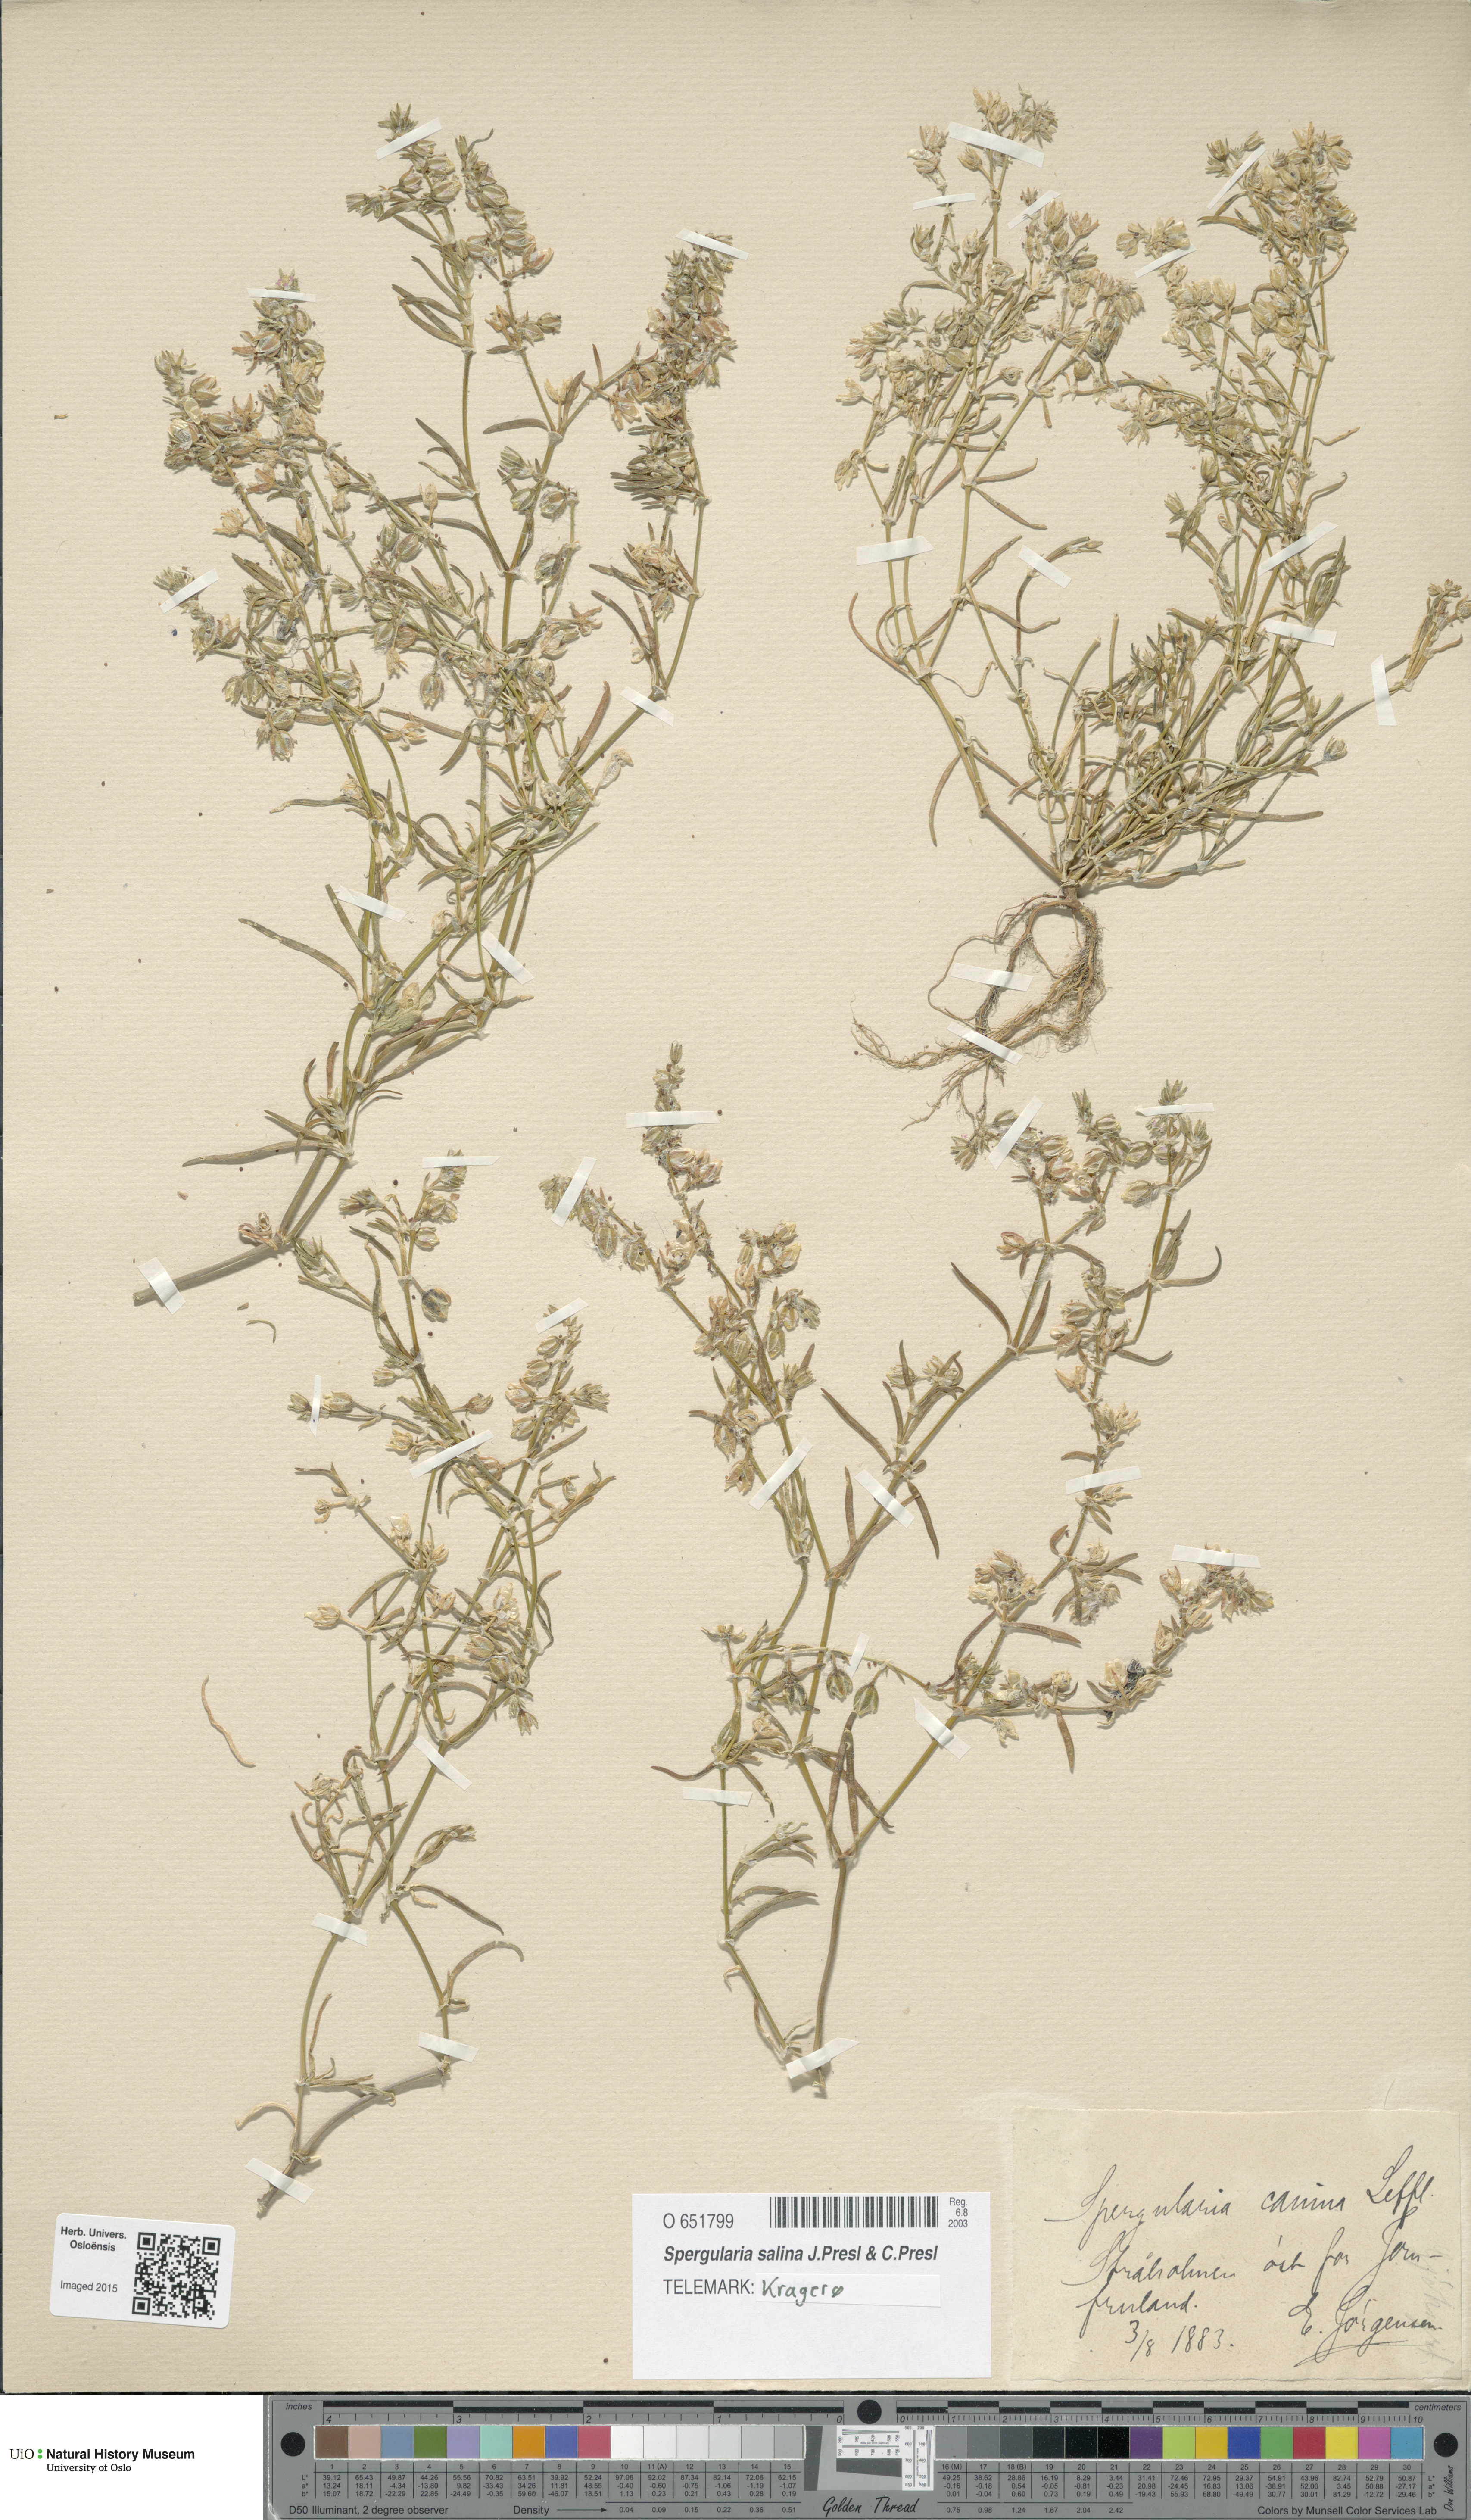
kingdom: Plantae
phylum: Tracheophyta
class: Magnoliopsida
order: Caryophyllales
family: Caryophyllaceae
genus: Spergularia
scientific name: Spergularia marina
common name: Lesser sea-spurrey
